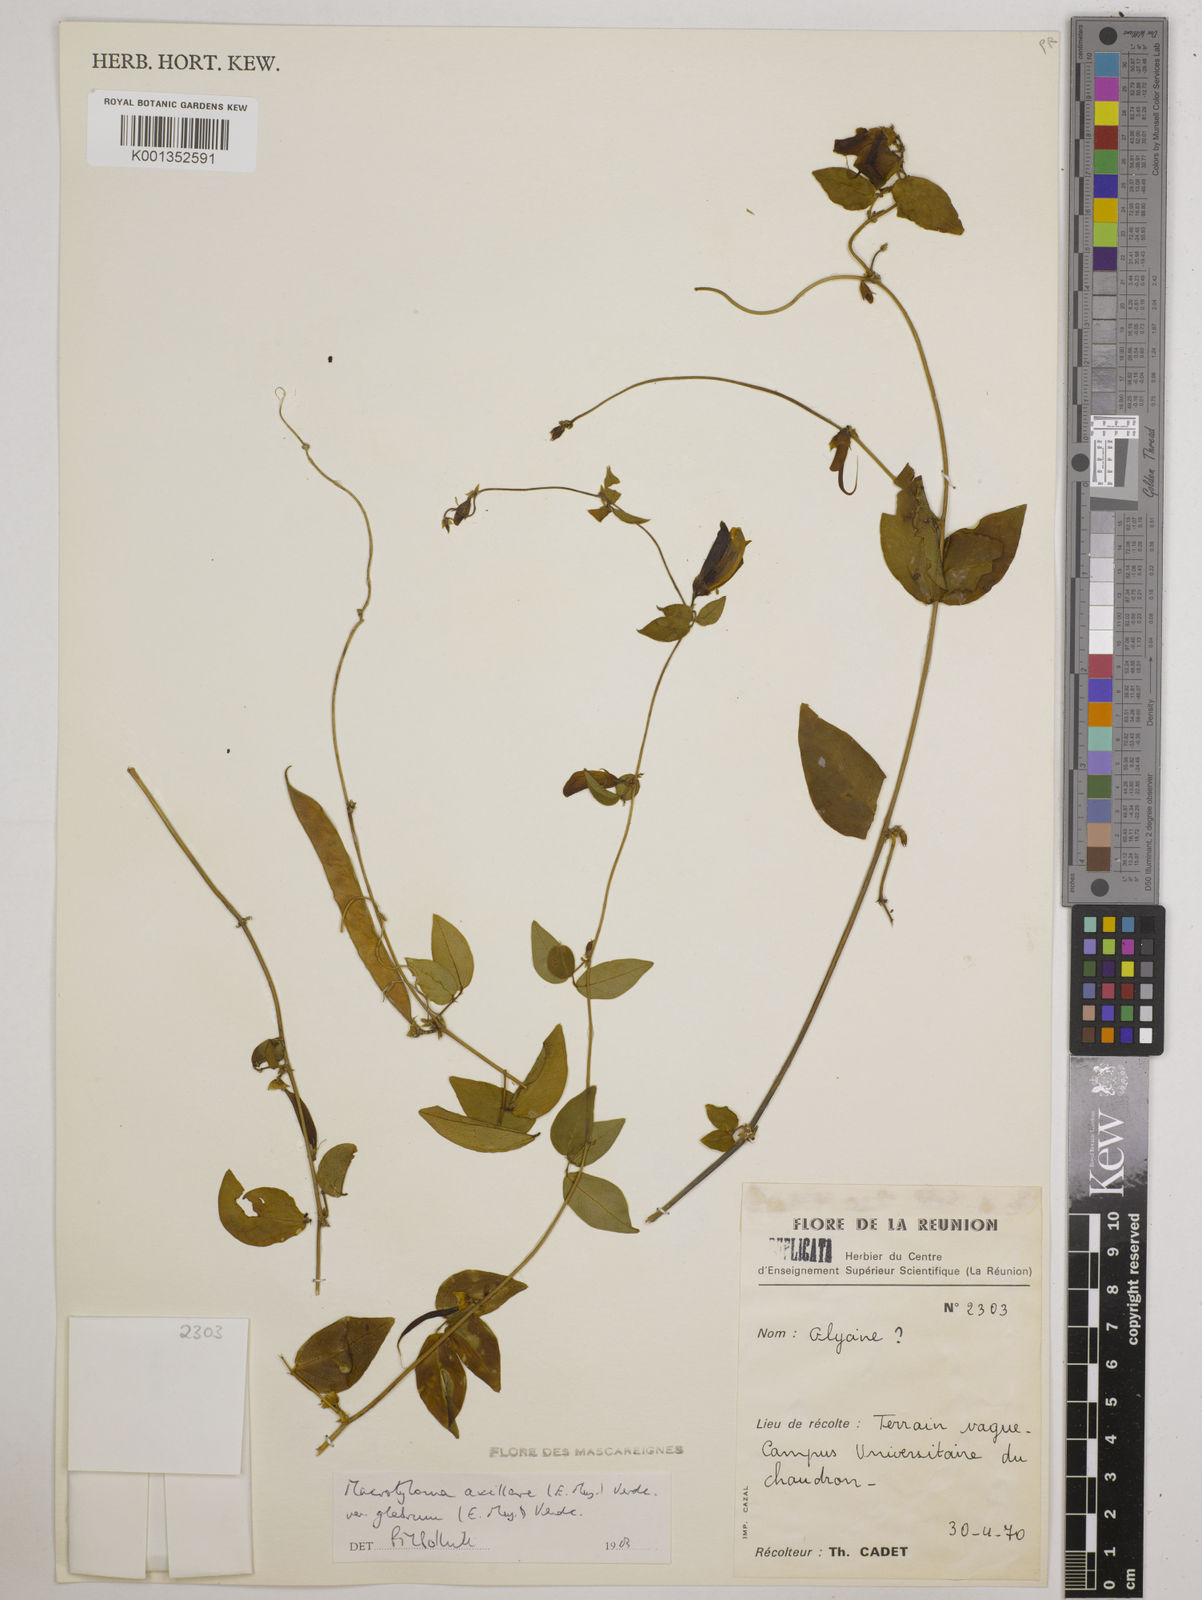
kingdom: Plantae
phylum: Tracheophyta
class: Magnoliopsida
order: Fabales
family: Fabaceae
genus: Macrotyloma
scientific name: Macrotyloma
